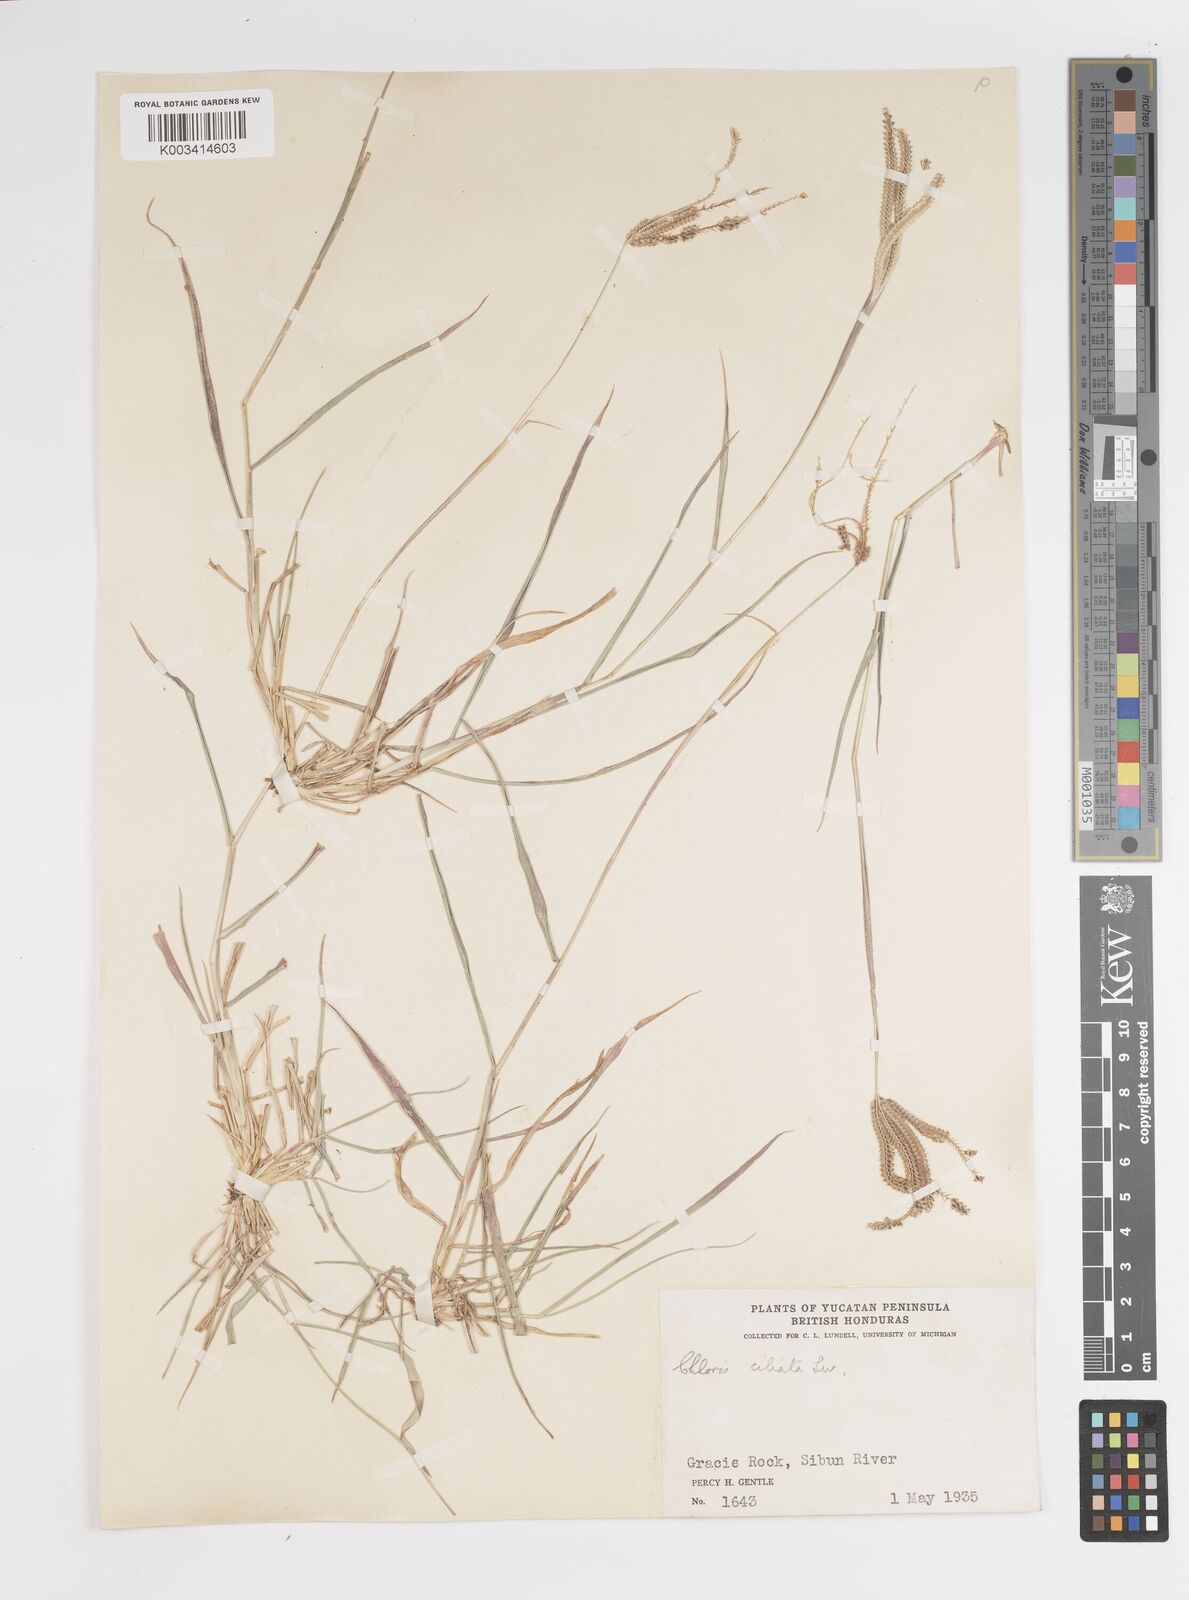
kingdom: Plantae
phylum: Tracheophyta
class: Liliopsida
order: Poales
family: Poaceae
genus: Stapfochloa
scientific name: Stapfochloa ciliata
